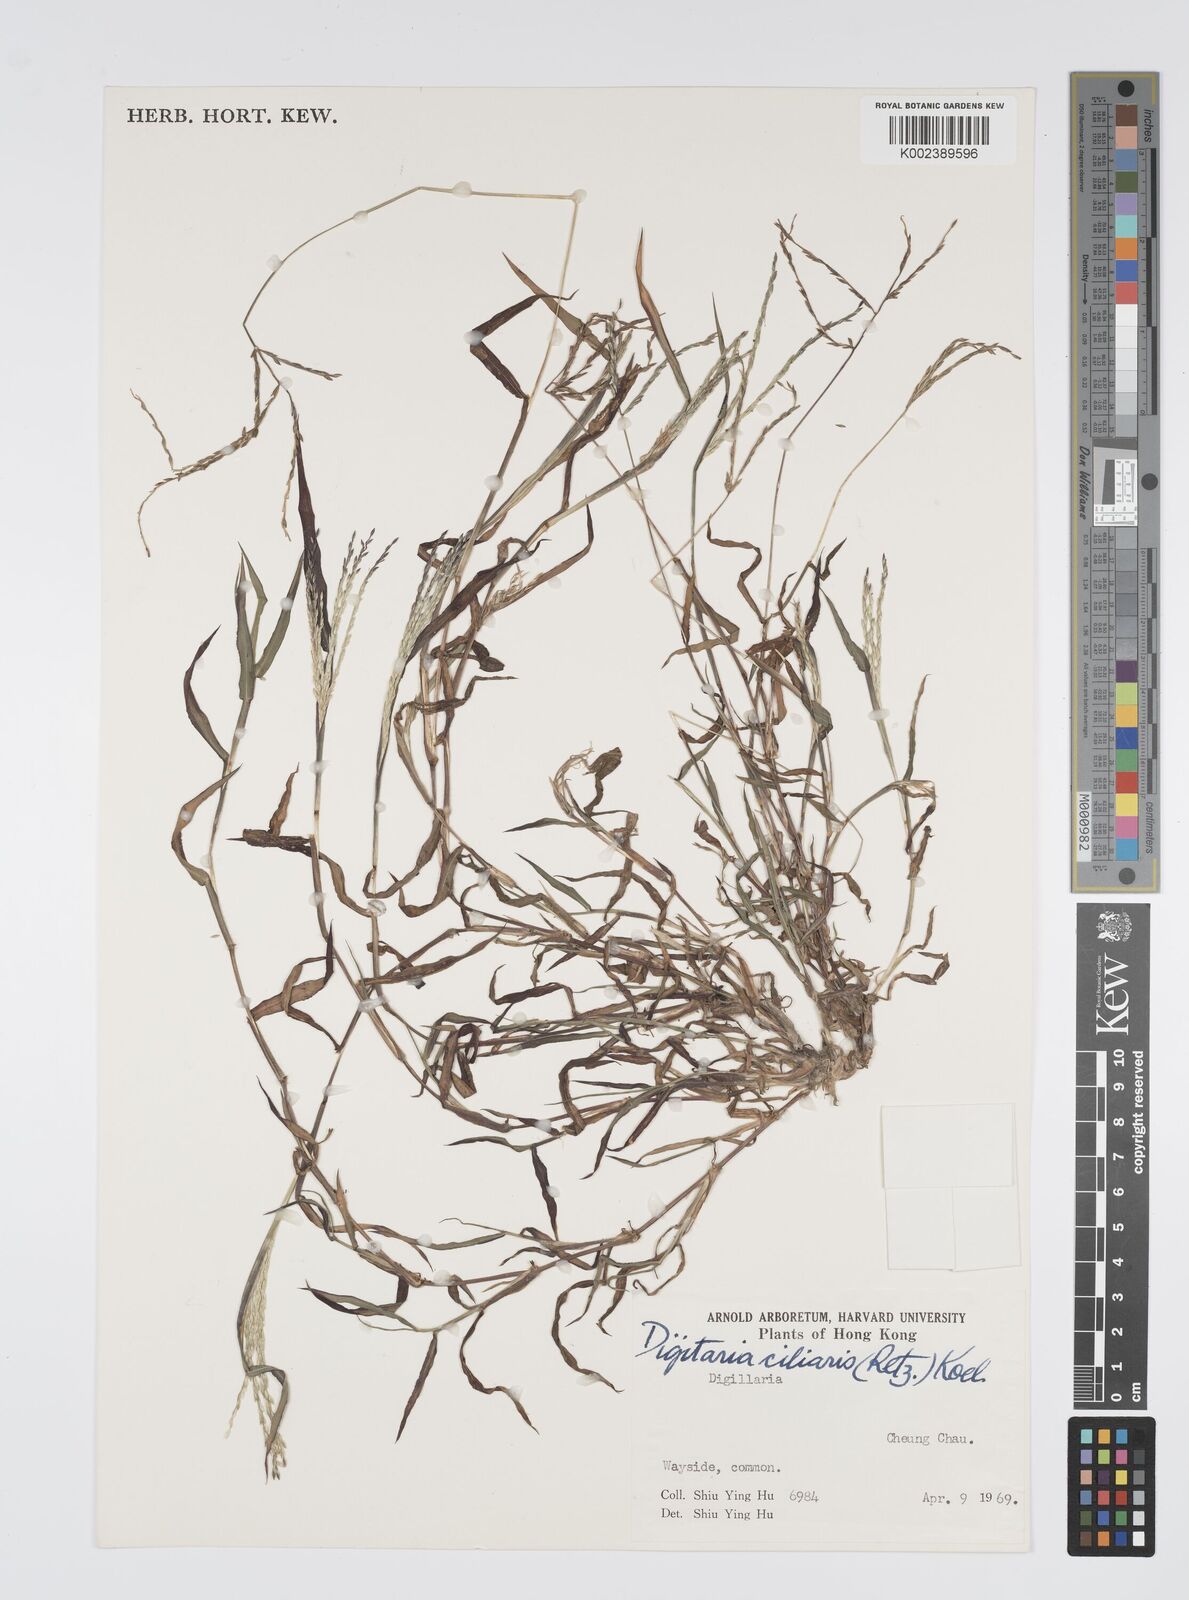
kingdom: Plantae
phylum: Tracheophyta
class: Liliopsida
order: Poales
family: Poaceae
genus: Digitaria
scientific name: Digitaria ciliaris
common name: Tropical finger-grass
